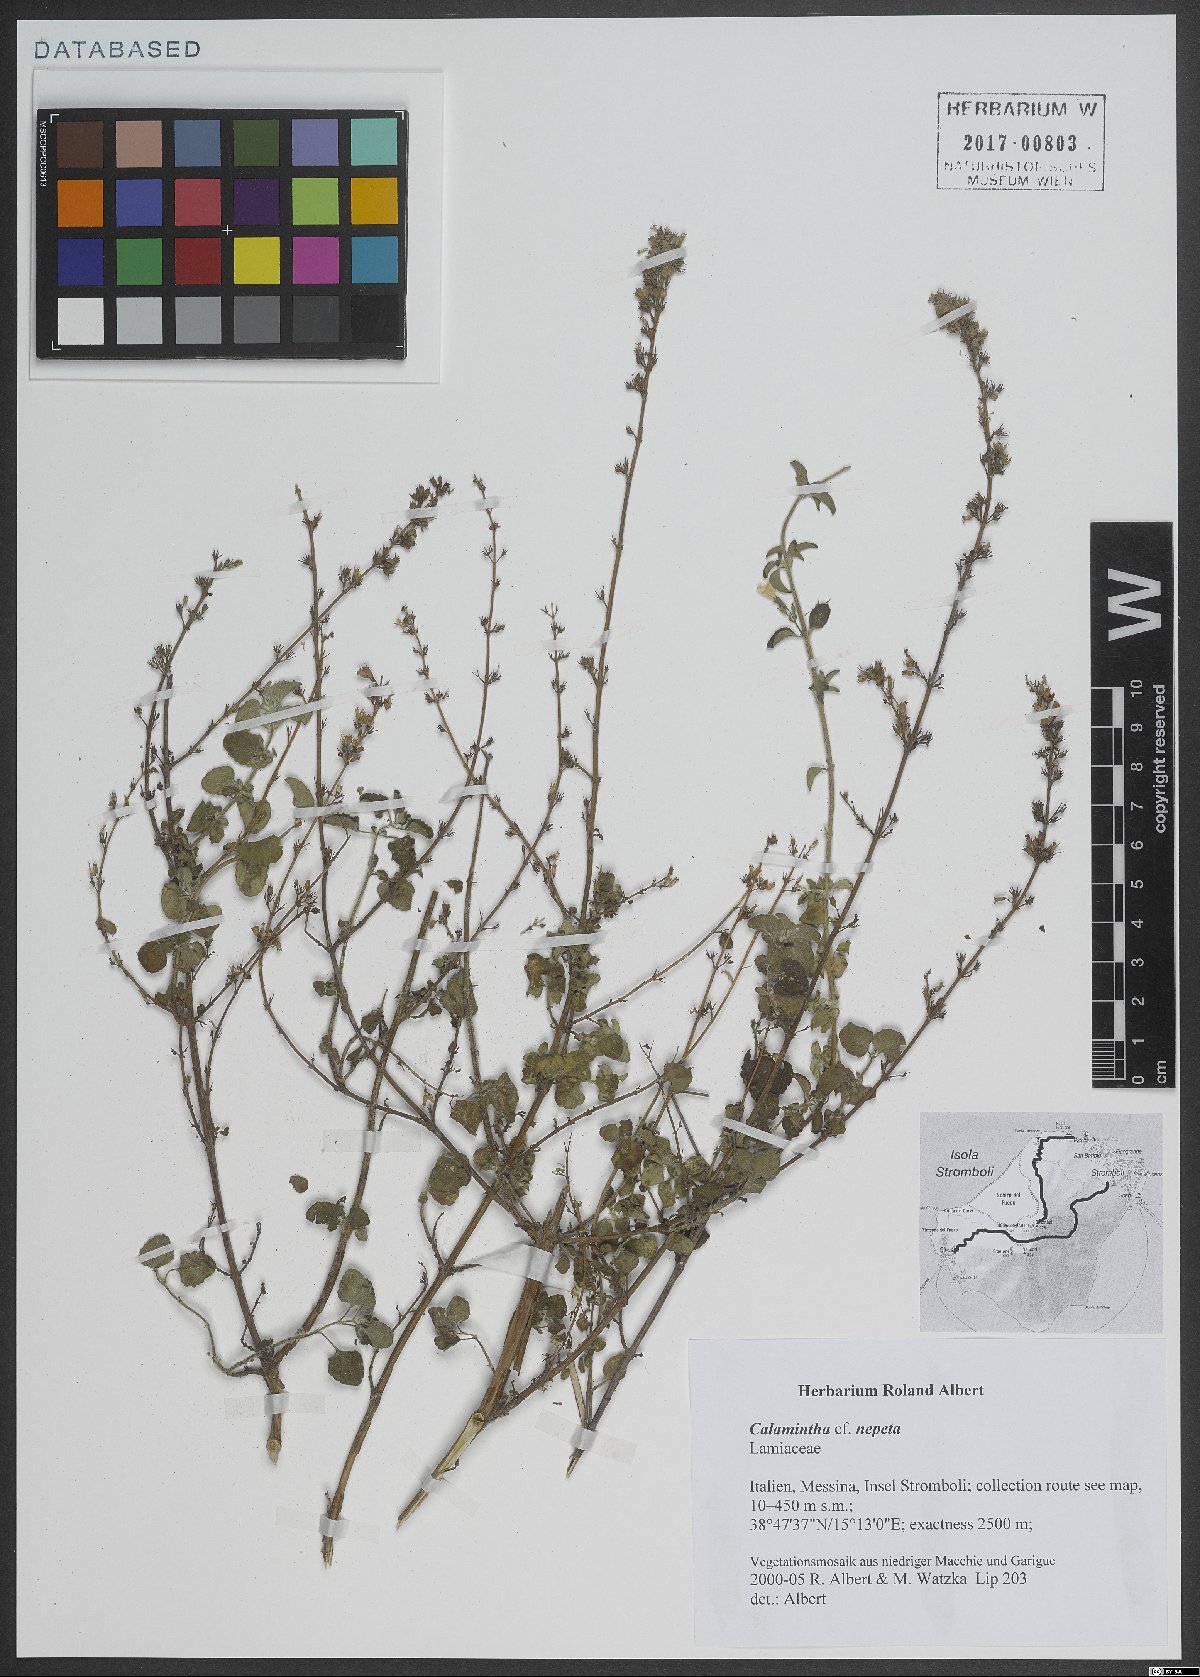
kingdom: Plantae
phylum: Tracheophyta
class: Magnoliopsida
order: Lamiales
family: Lamiaceae
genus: Clinopodium
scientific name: Clinopodium nepeta
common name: Lesser calamint
